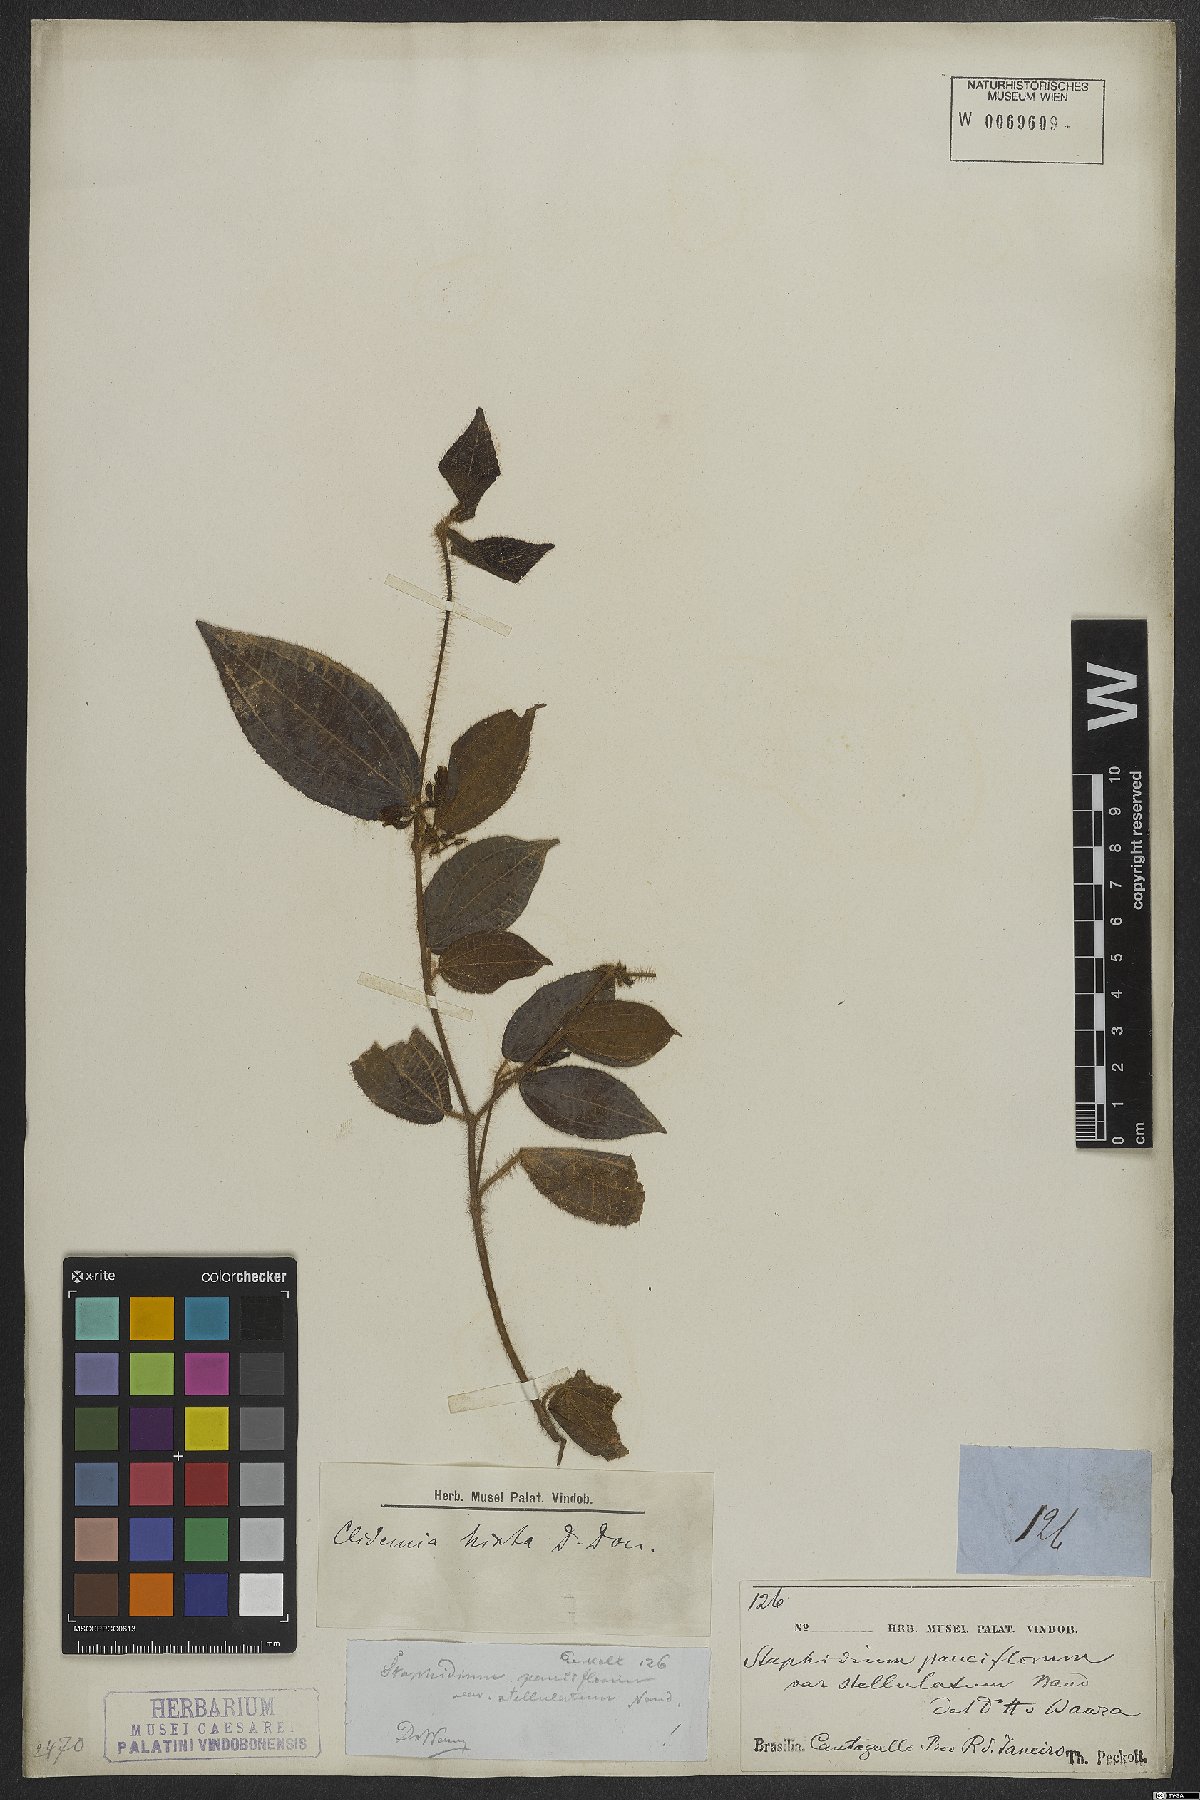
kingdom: Plantae
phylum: Tracheophyta
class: Magnoliopsida
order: Myrtales
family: Melastomataceae
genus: Miconia
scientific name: Miconia crenata
